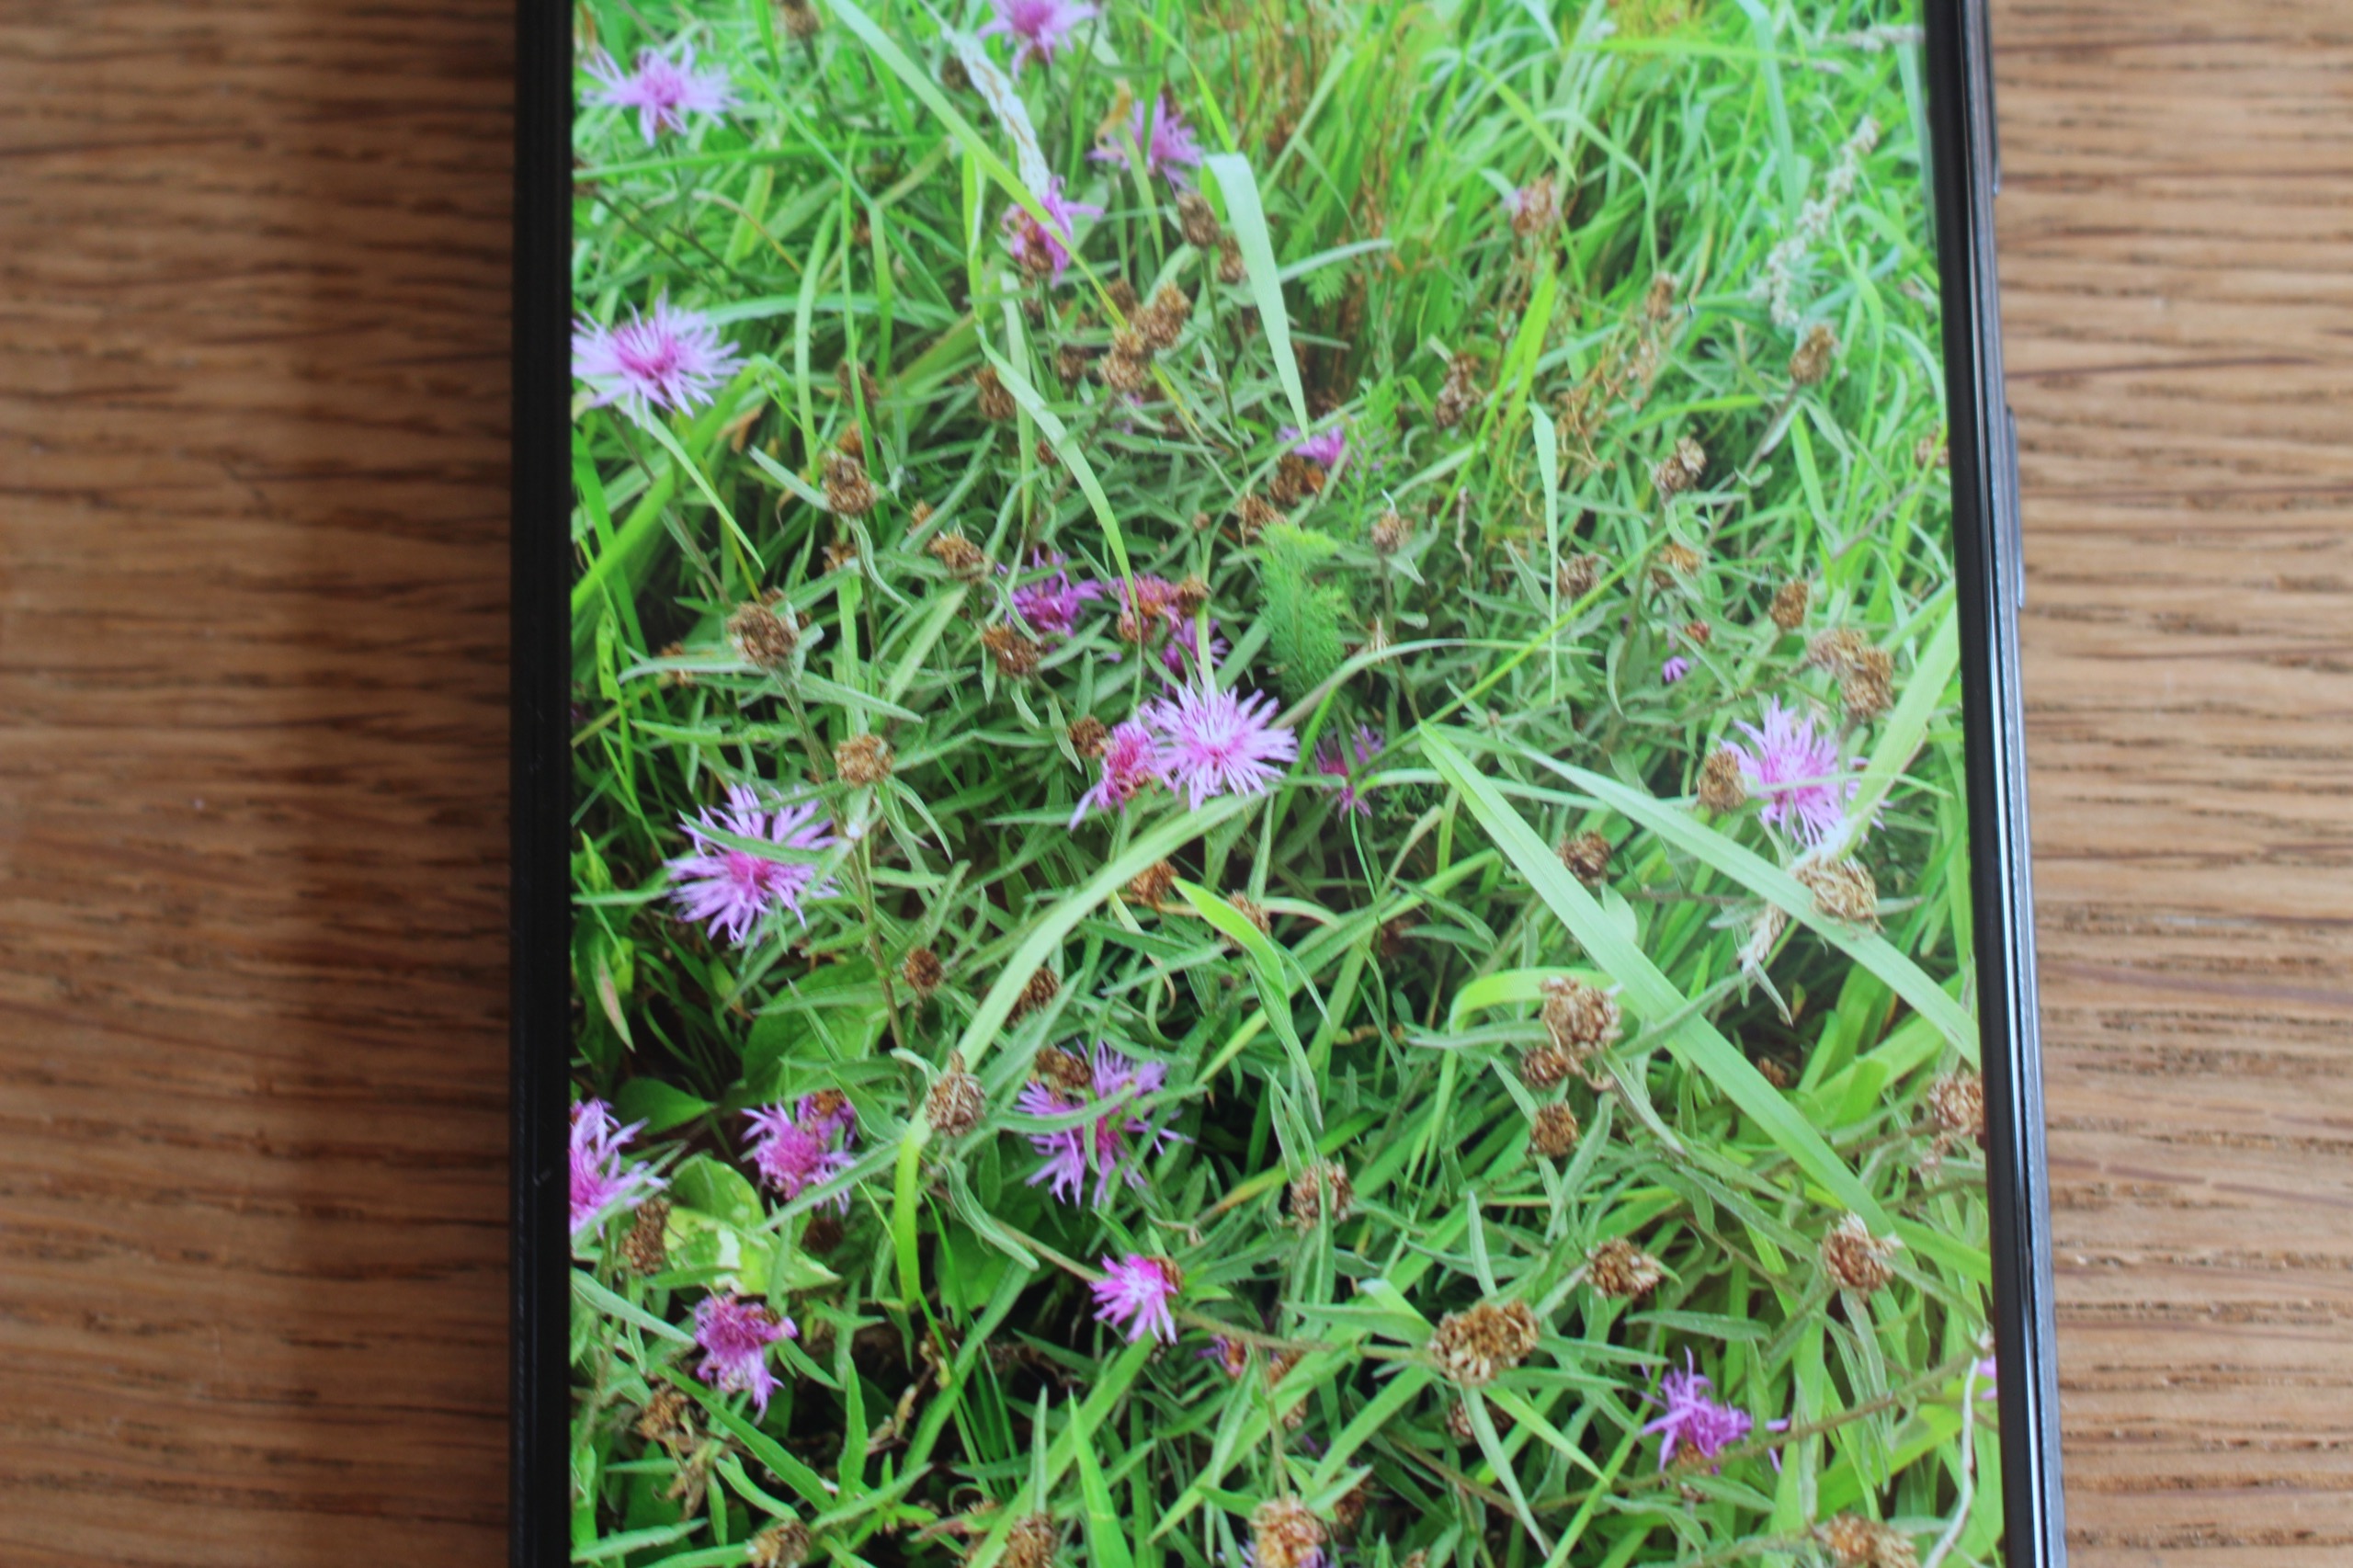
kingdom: Plantae
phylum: Tracheophyta
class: Magnoliopsida
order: Asterales
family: Asteraceae
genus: Centaurea
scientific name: Centaurea jacea
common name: Almindelig knopurt
